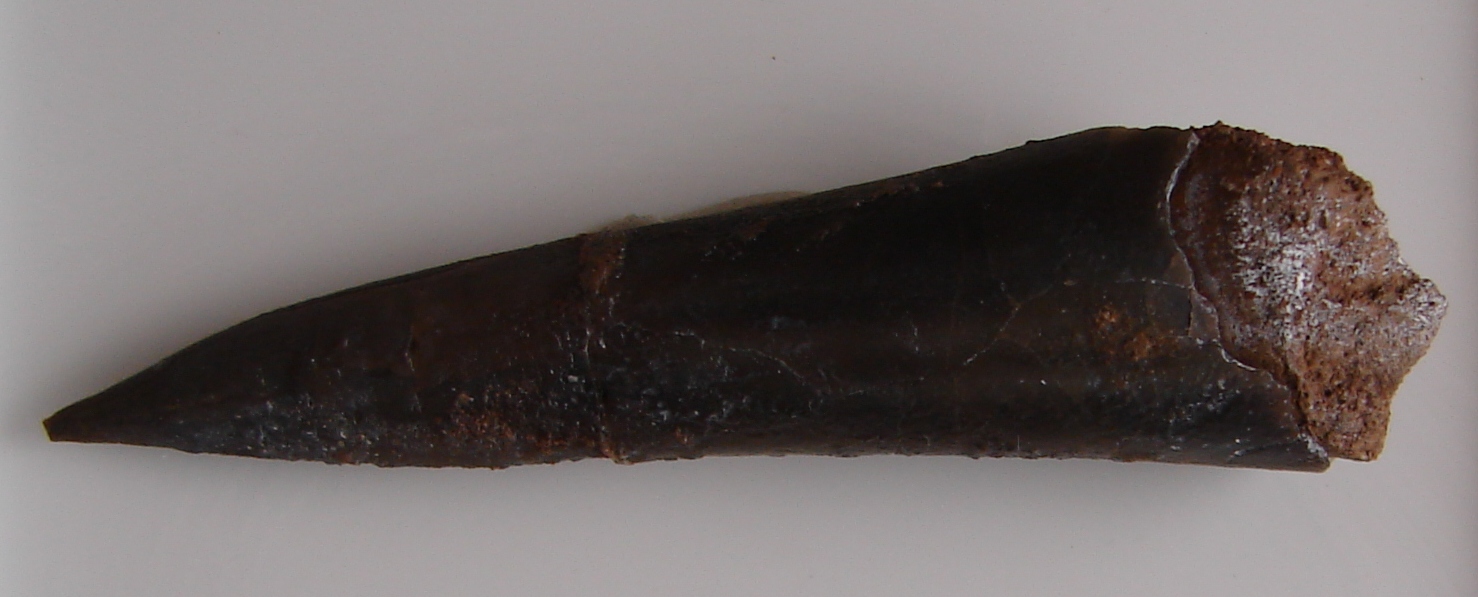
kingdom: Animalia
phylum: Mollusca
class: Cephalopoda
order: Belemnitida
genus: Homaloteuthis
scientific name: Homaloteuthis
